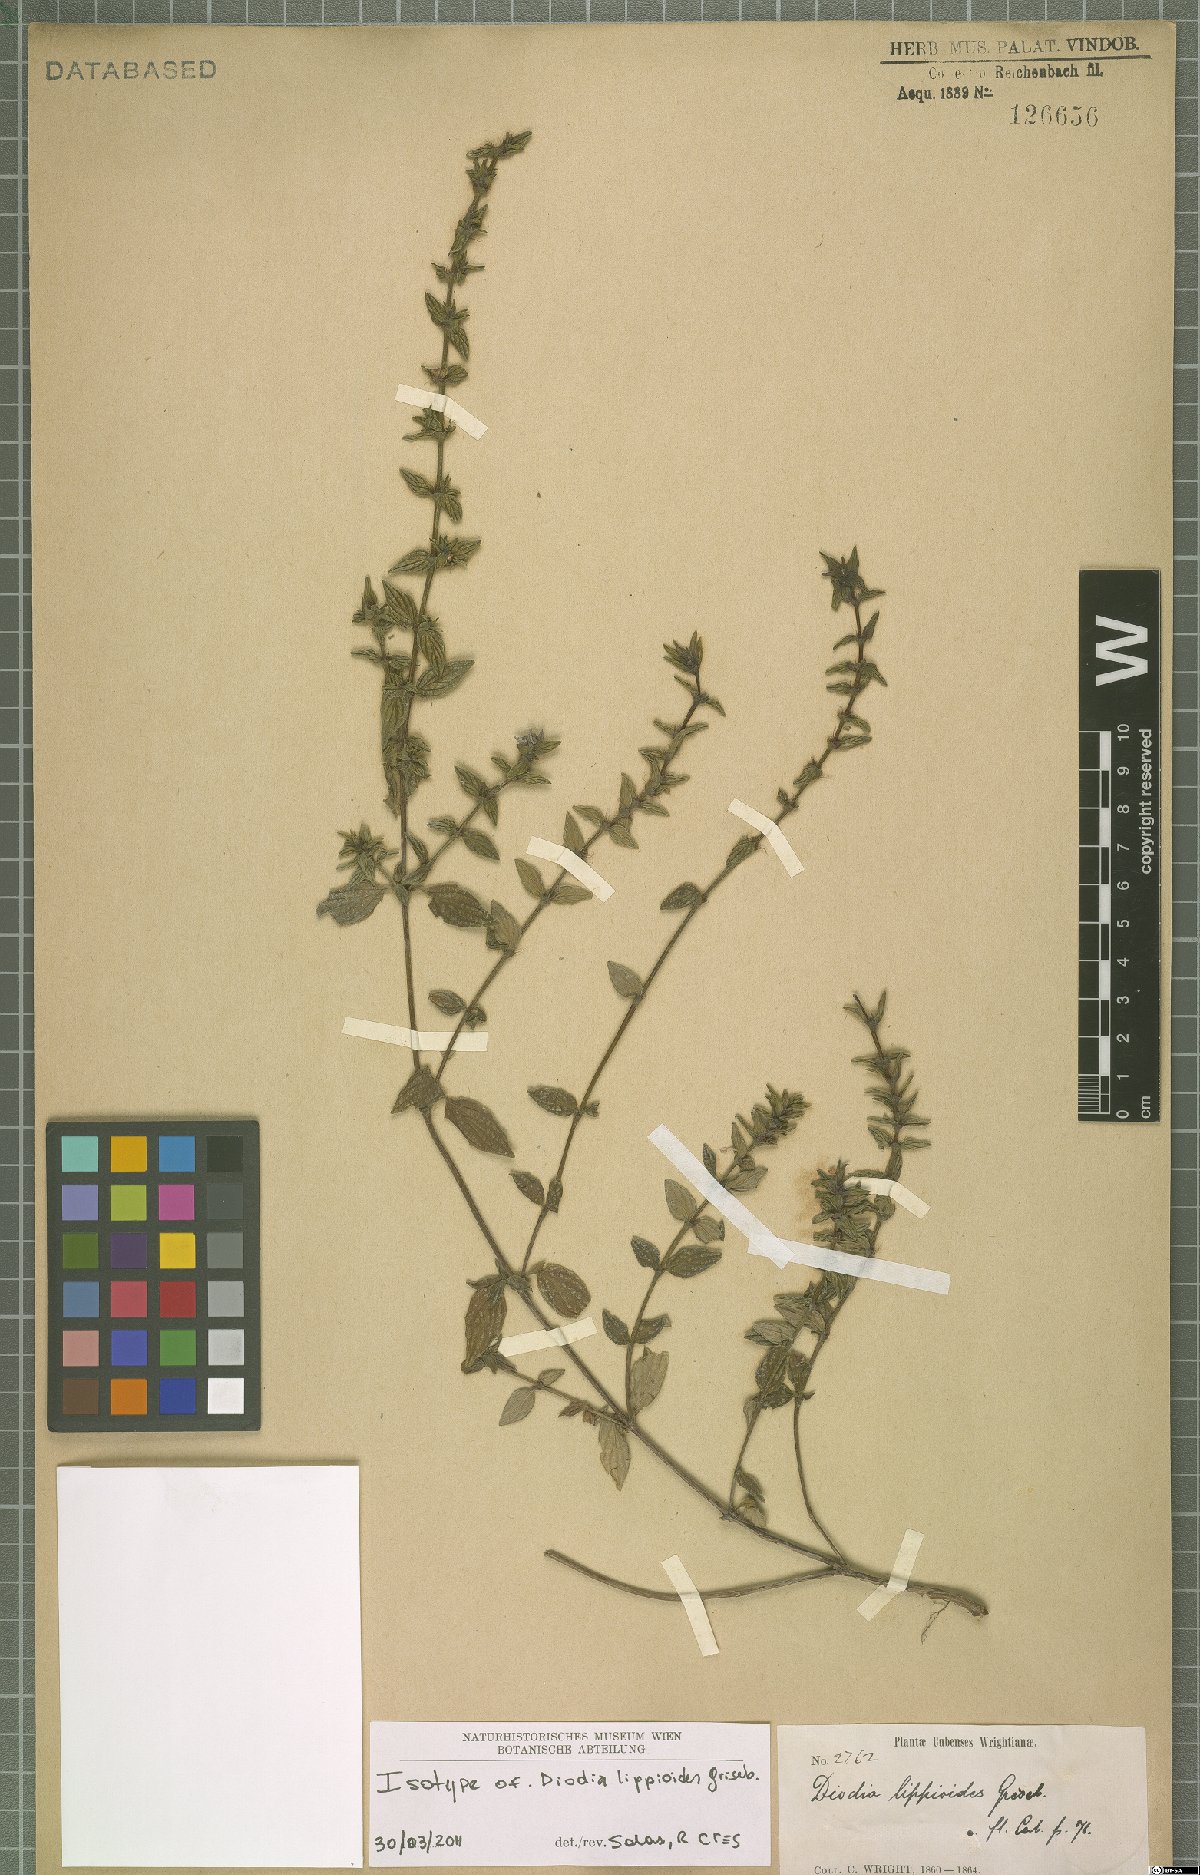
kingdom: Plantae
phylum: Tracheophyta
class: Magnoliopsida
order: Gentianales
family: Rubiaceae
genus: Hexasepalum
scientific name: Hexasepalum lippioides
